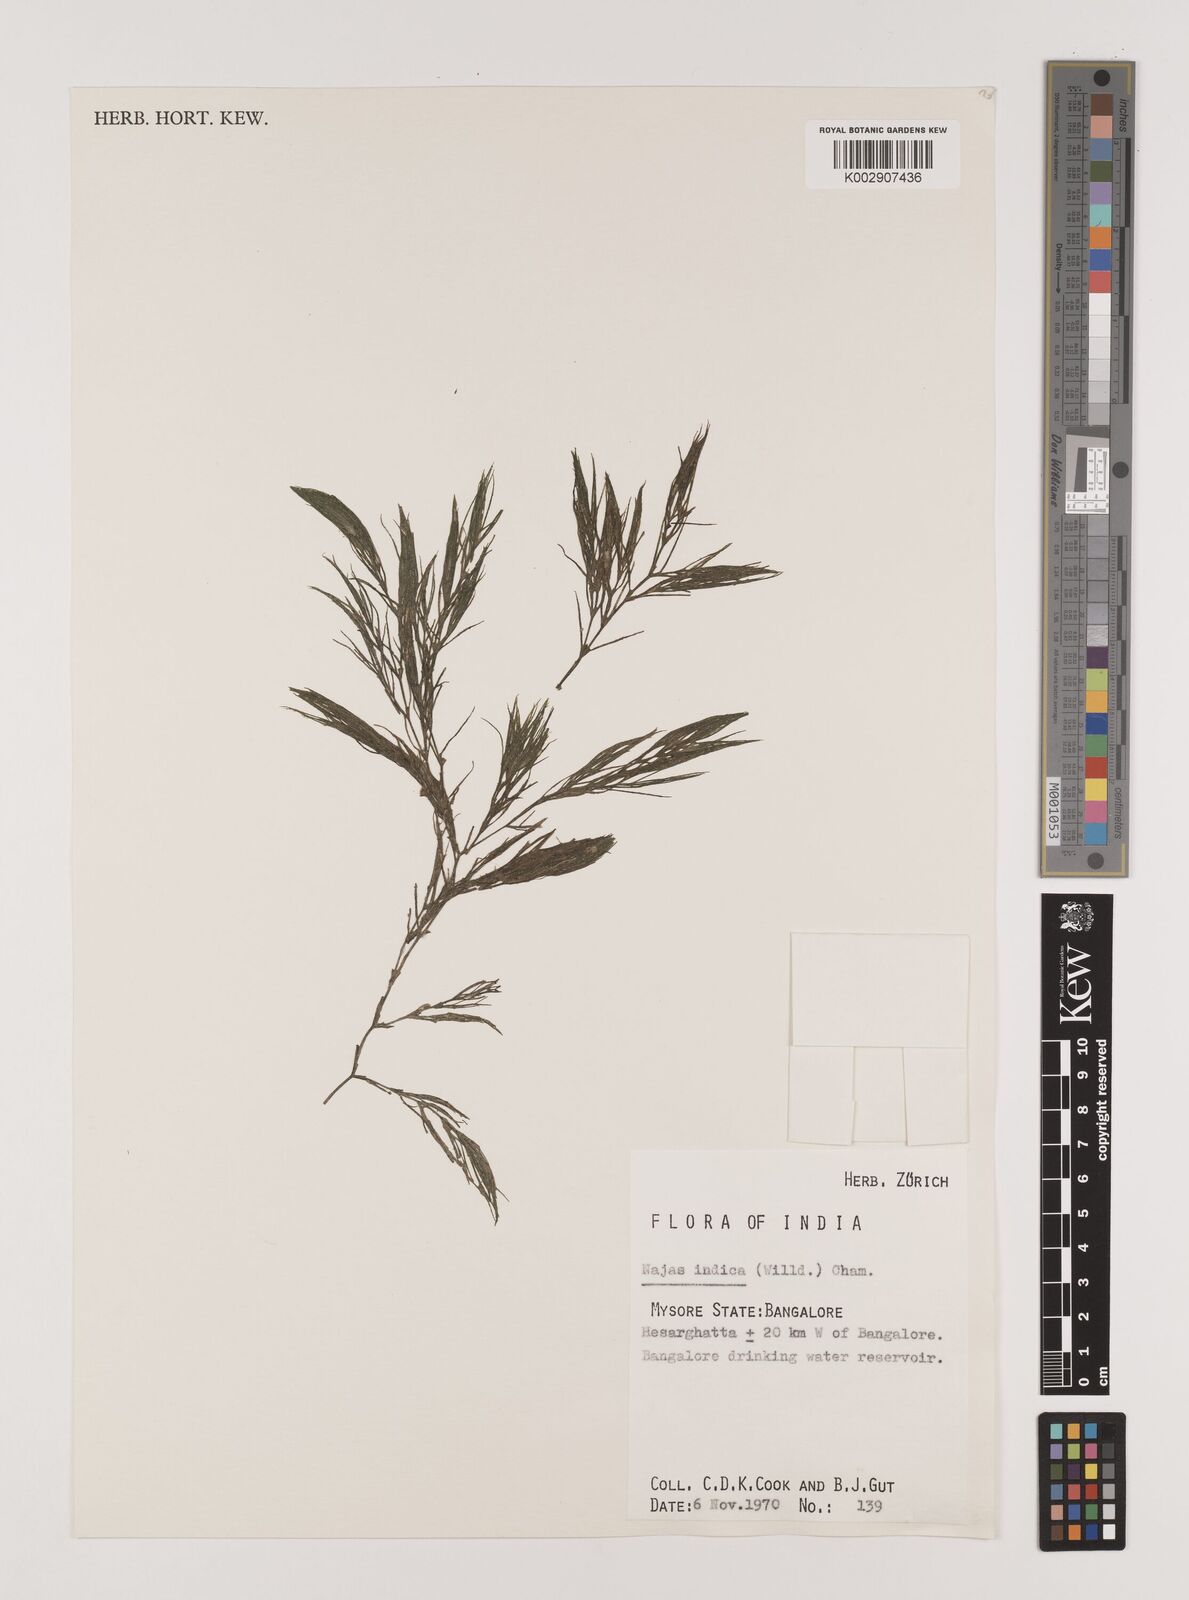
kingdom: Plantae
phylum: Tracheophyta
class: Liliopsida
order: Alismatales
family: Hydrocharitaceae
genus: Najas
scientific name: Najas indica
